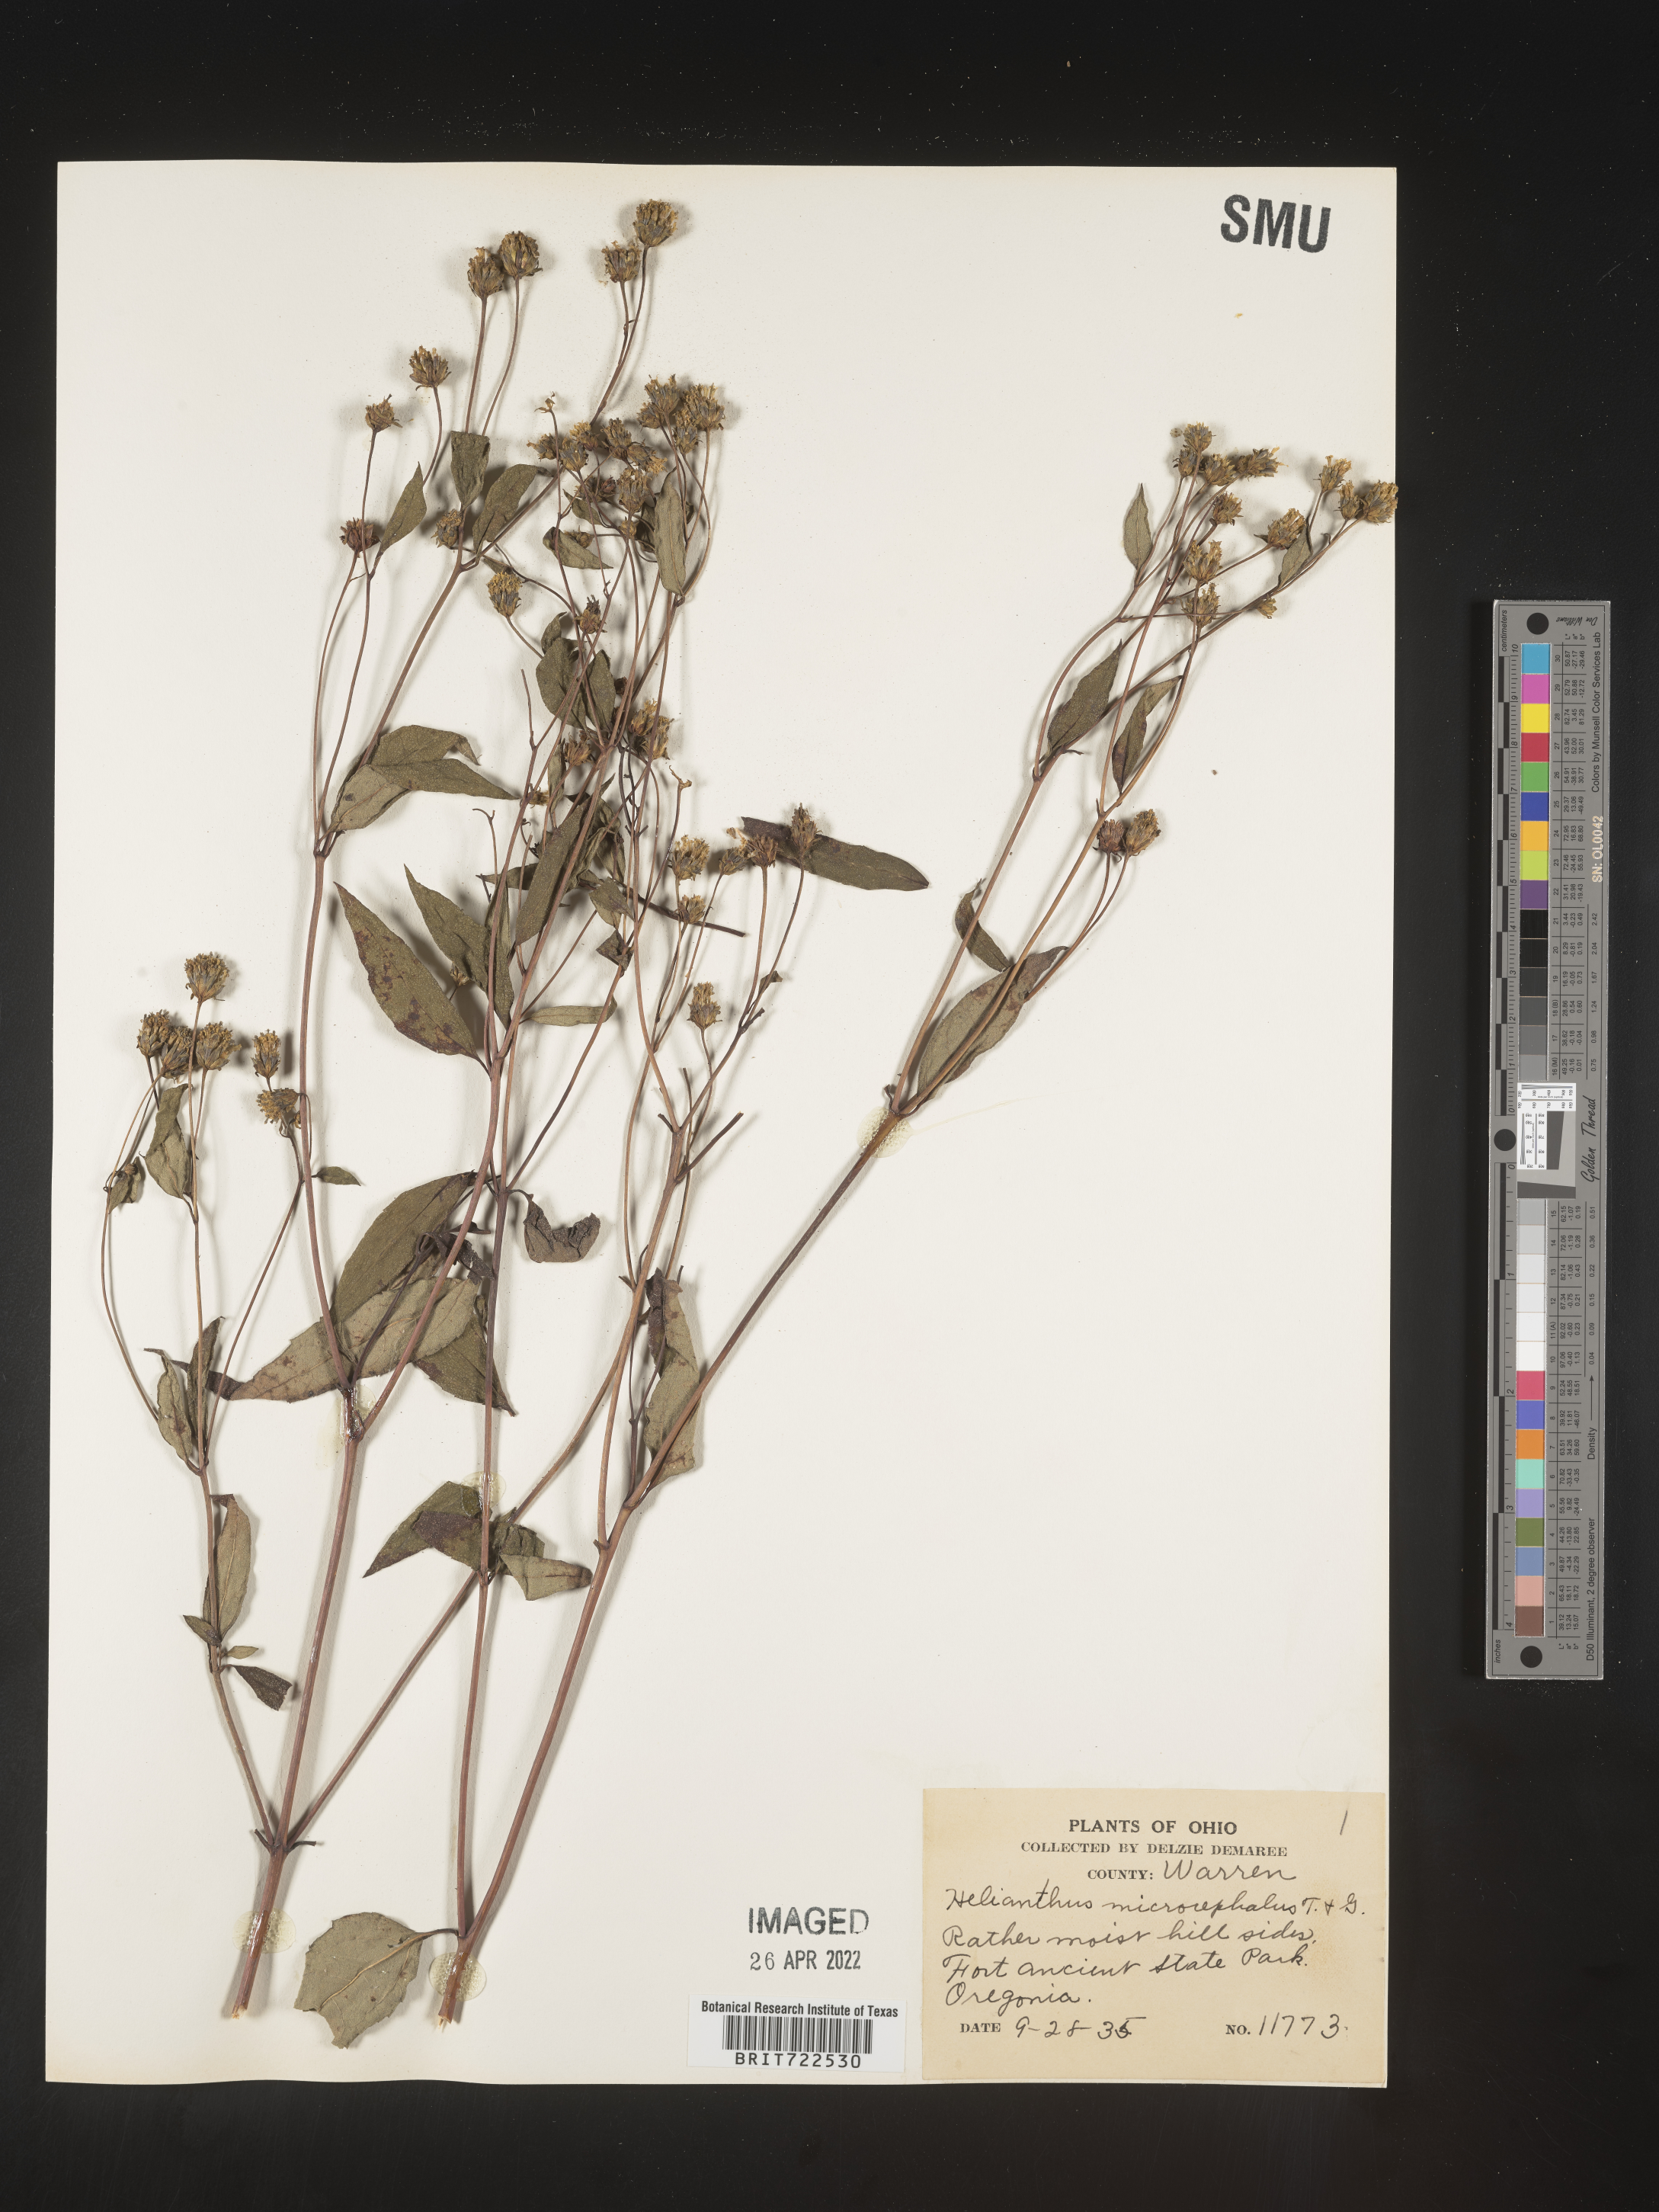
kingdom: Plantae
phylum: Tracheophyta
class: Magnoliopsida
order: Asterales
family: Asteraceae
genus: Helianthus
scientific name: Helianthus microcephalus
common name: Woodland sunflower
